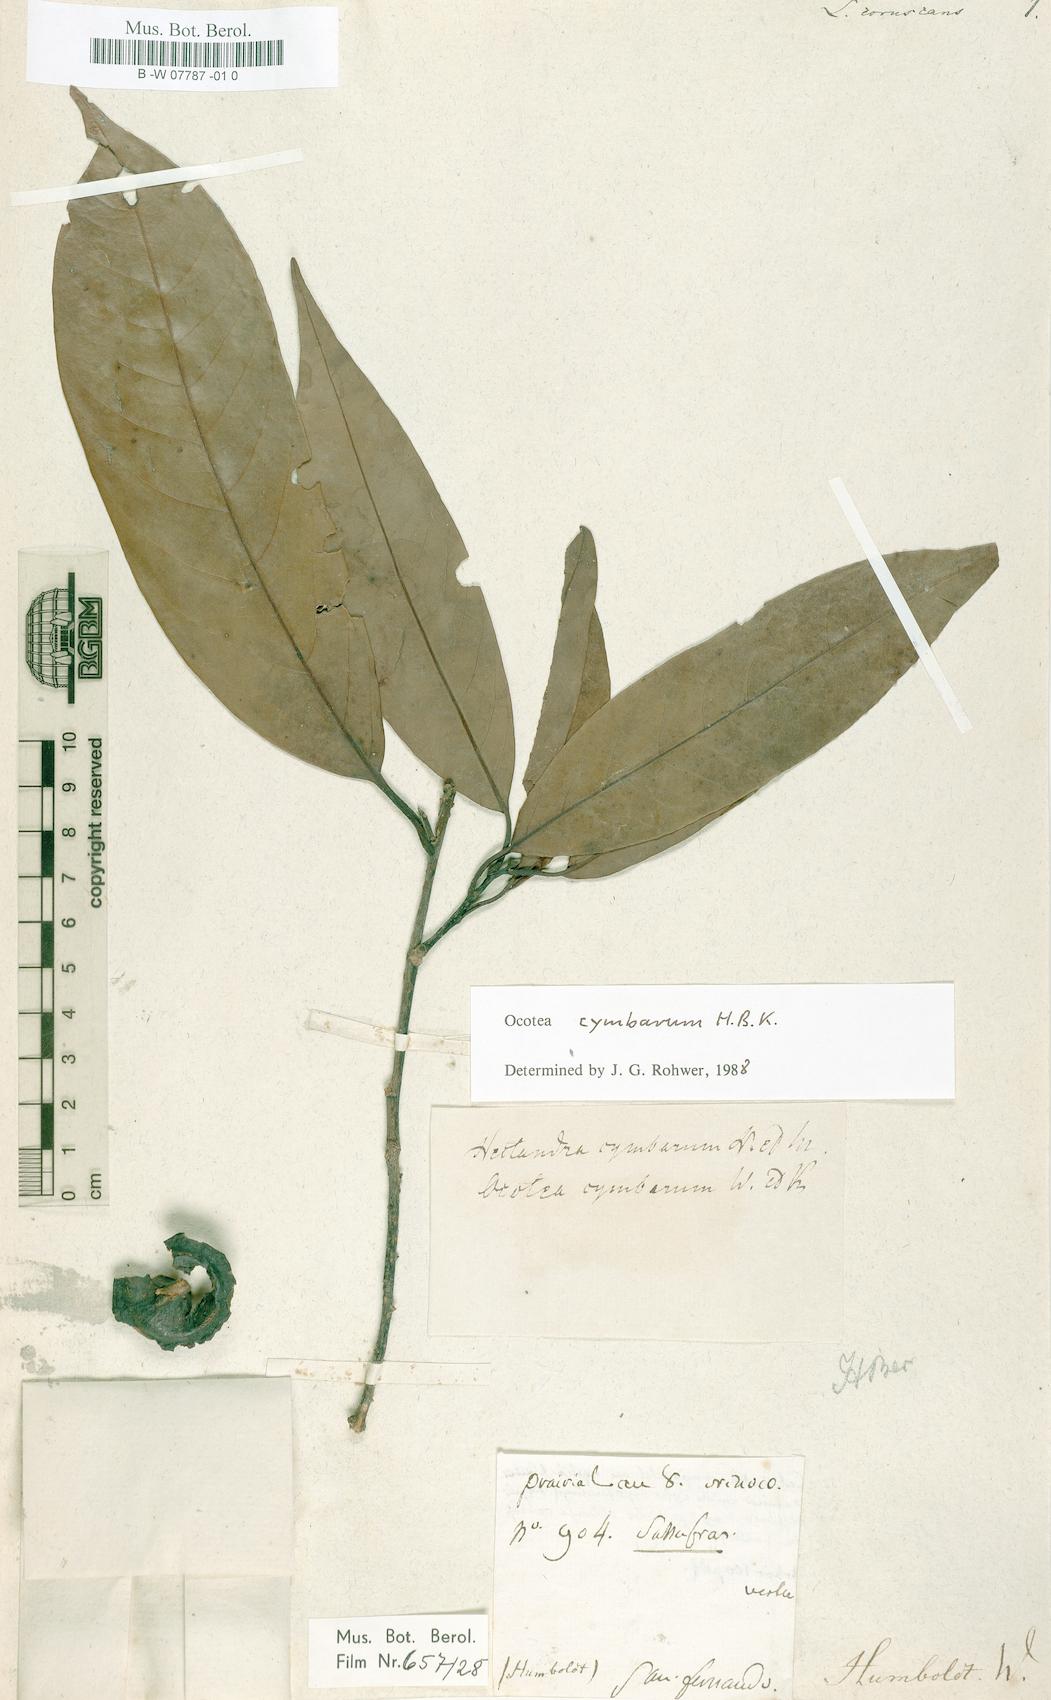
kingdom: Plantae
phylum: Tracheophyta
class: Magnoliopsida
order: Laurales
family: Lauraceae
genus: Mespilodaphne
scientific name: Mespilodaphne cymbarum
